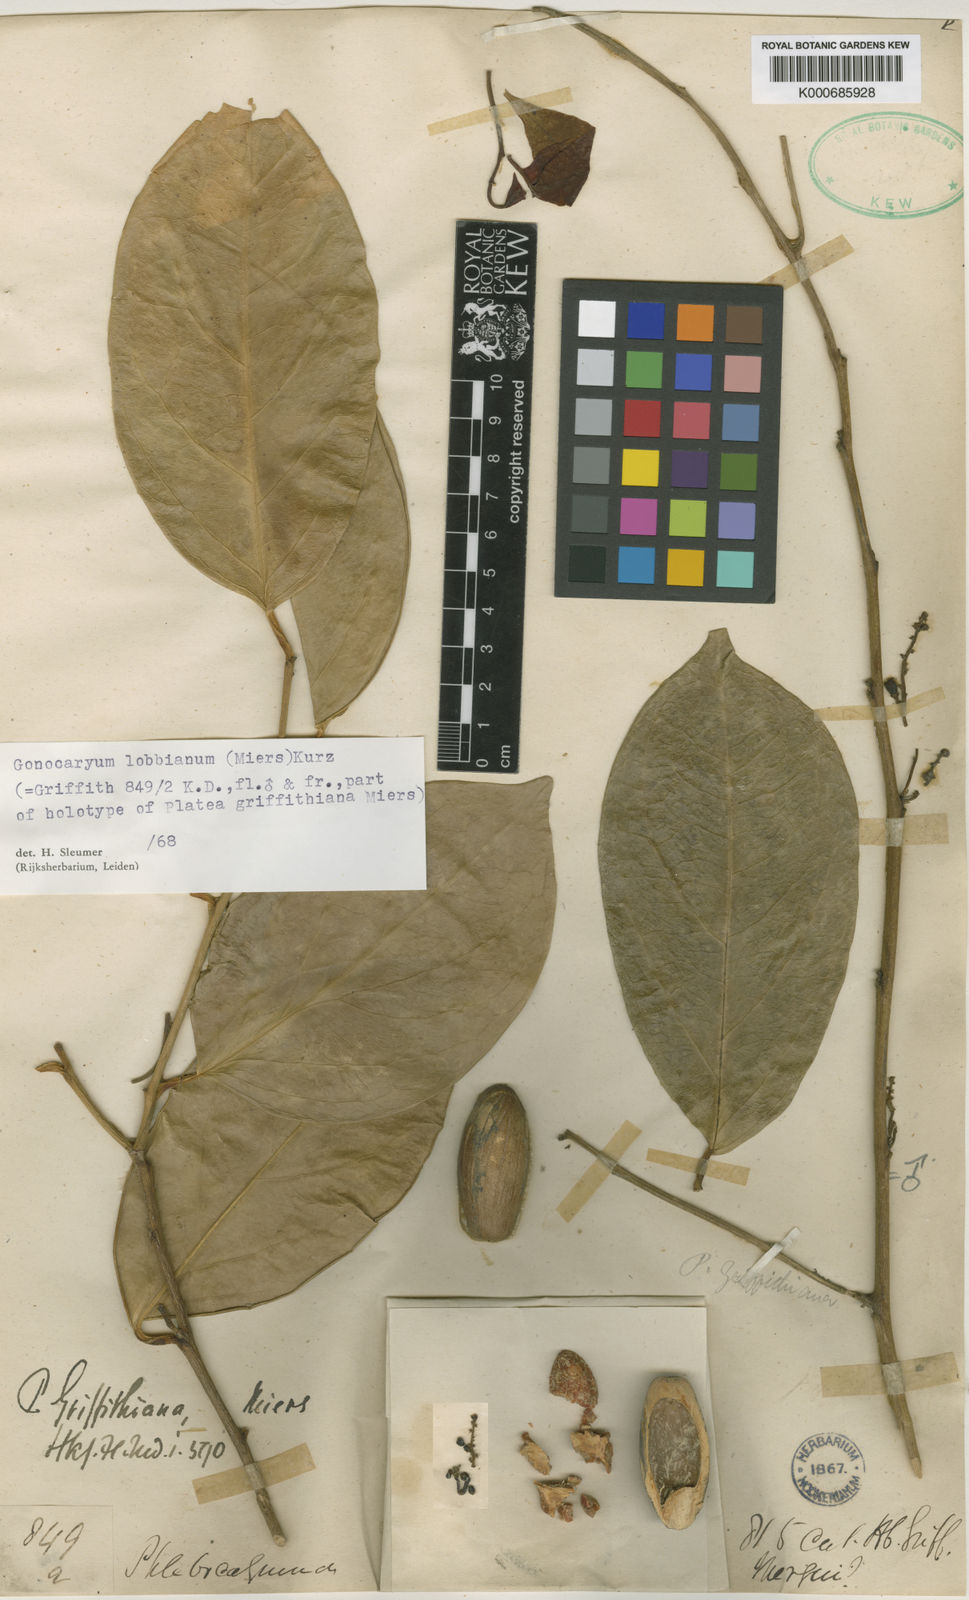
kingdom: Plantae
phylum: Tracheophyta
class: Magnoliopsida
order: Cardiopteridales
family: Cardiopteridaceae
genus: Gonocaryum
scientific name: Gonocaryum lobbianum
